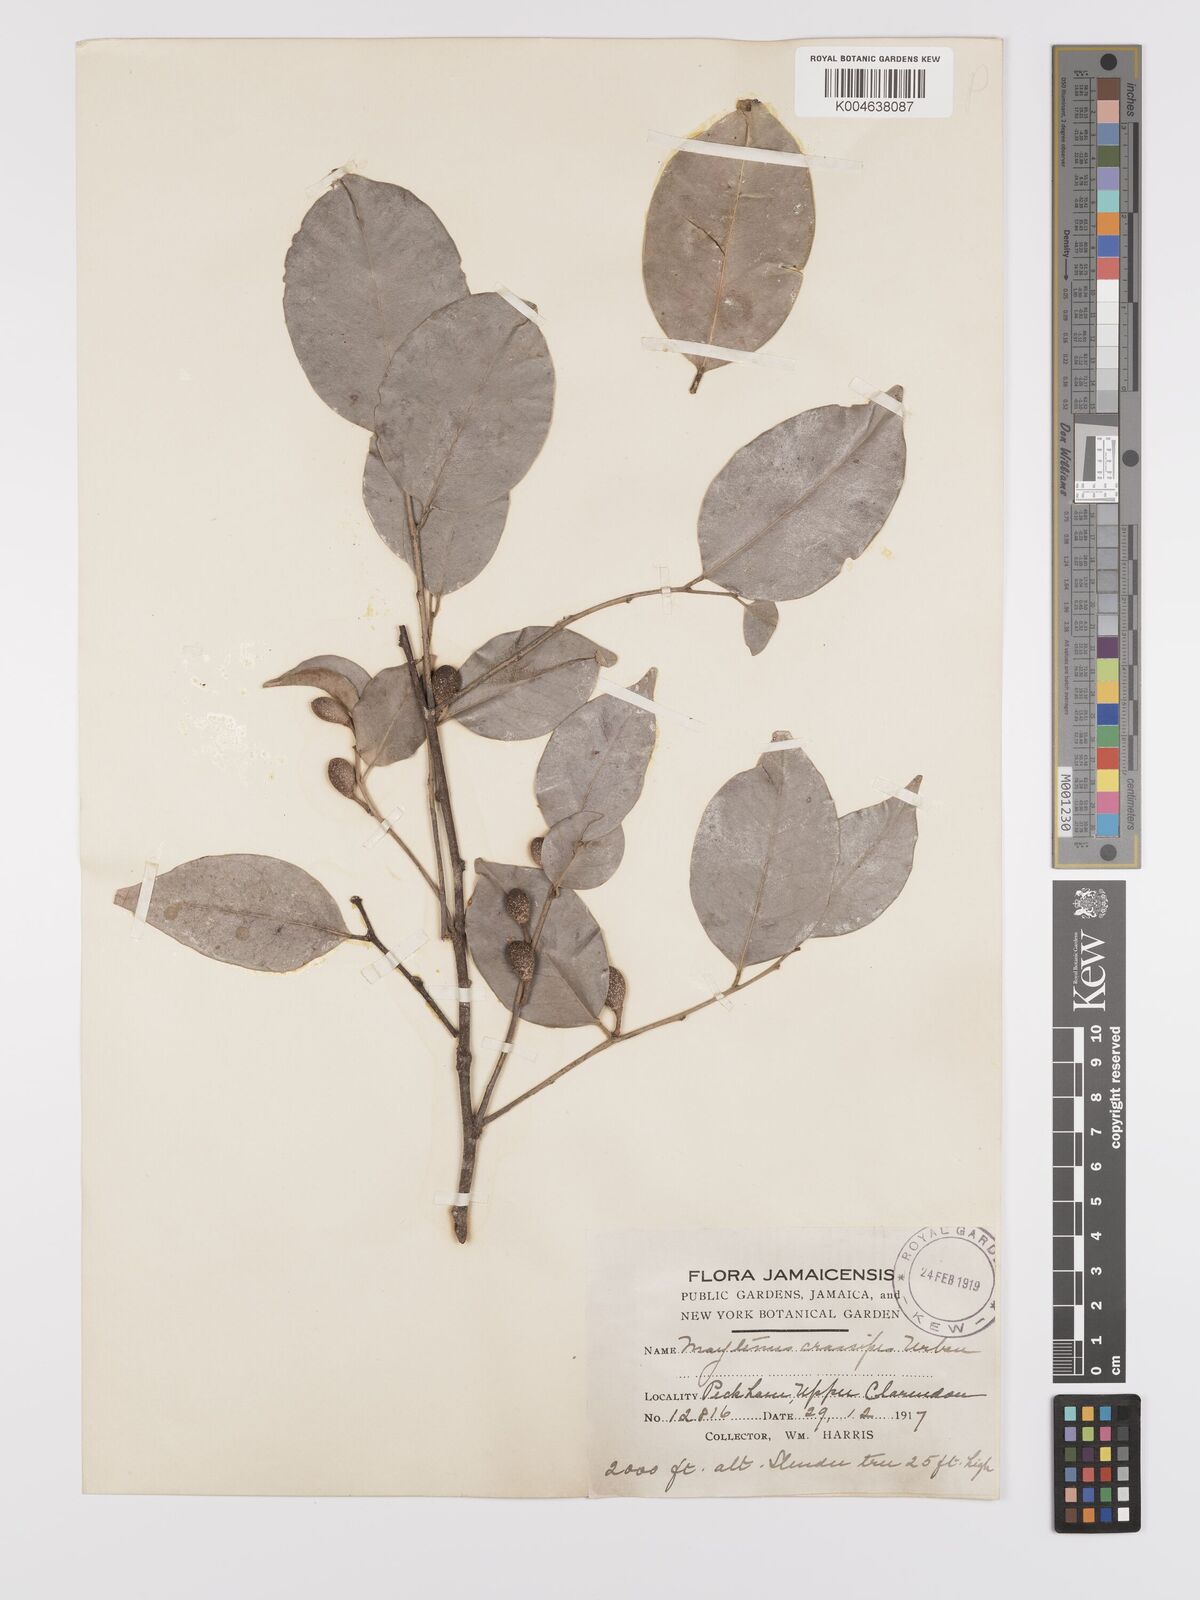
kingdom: Plantae
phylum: Tracheophyta
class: Magnoliopsida
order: Celastrales
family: Celastraceae
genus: Monteverdia
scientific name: Monteverdia crassipes
